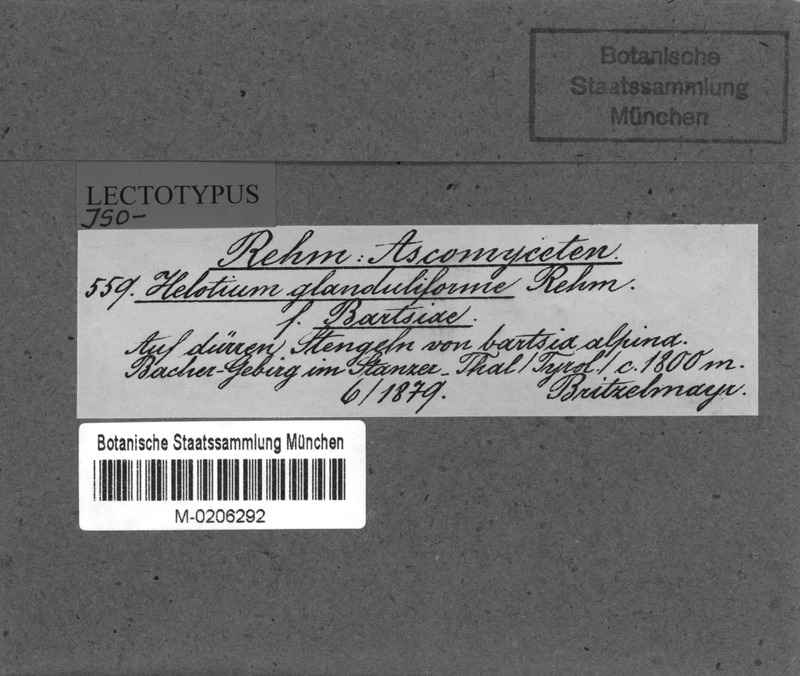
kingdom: Fungi
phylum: Ascomycota
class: Leotiomycetes
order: Helotiales
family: Helotiaceae
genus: Cyathicula
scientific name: Cyathicula cyathoidea
